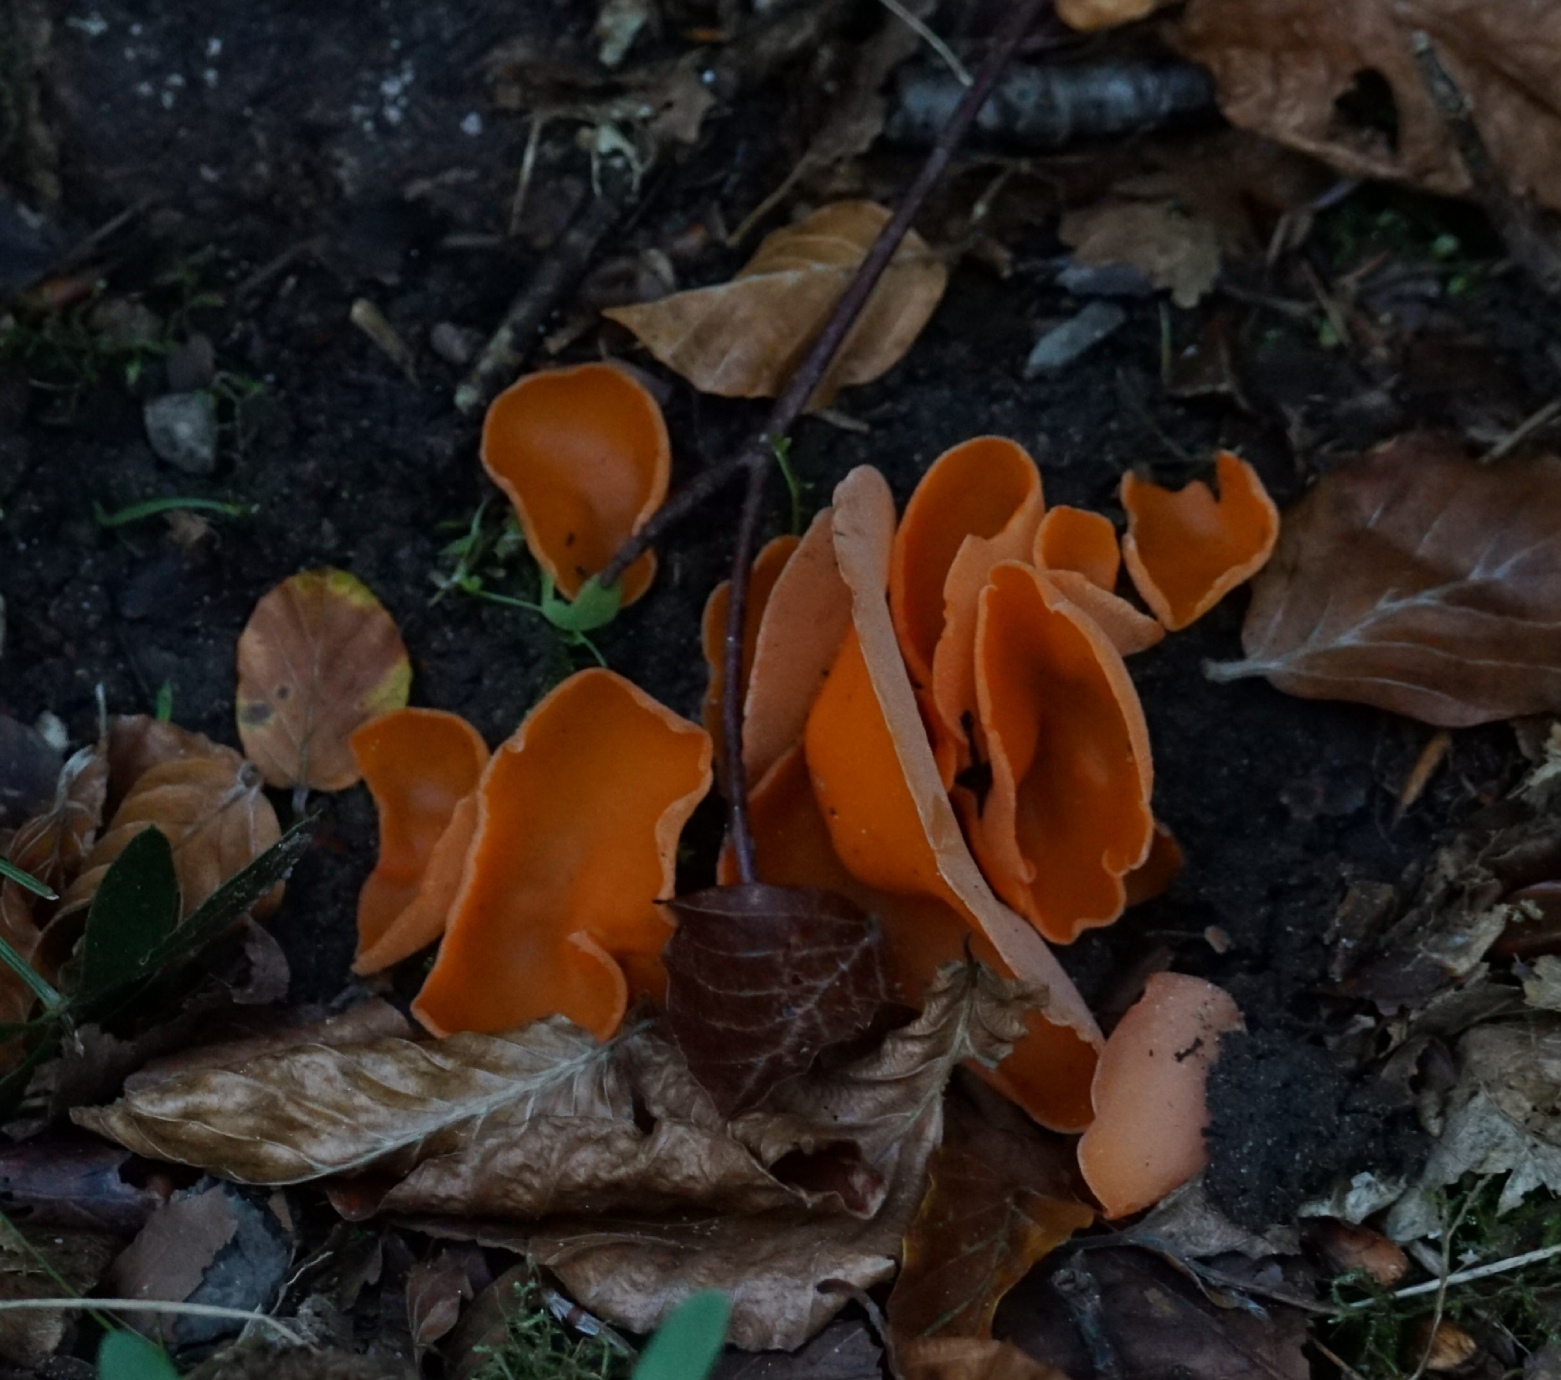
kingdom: Fungi
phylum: Ascomycota
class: Pezizomycetes
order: Pezizales
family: Pyronemataceae
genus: Aleuria
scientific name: Aleuria aurantia
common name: almindelig orangebæger
